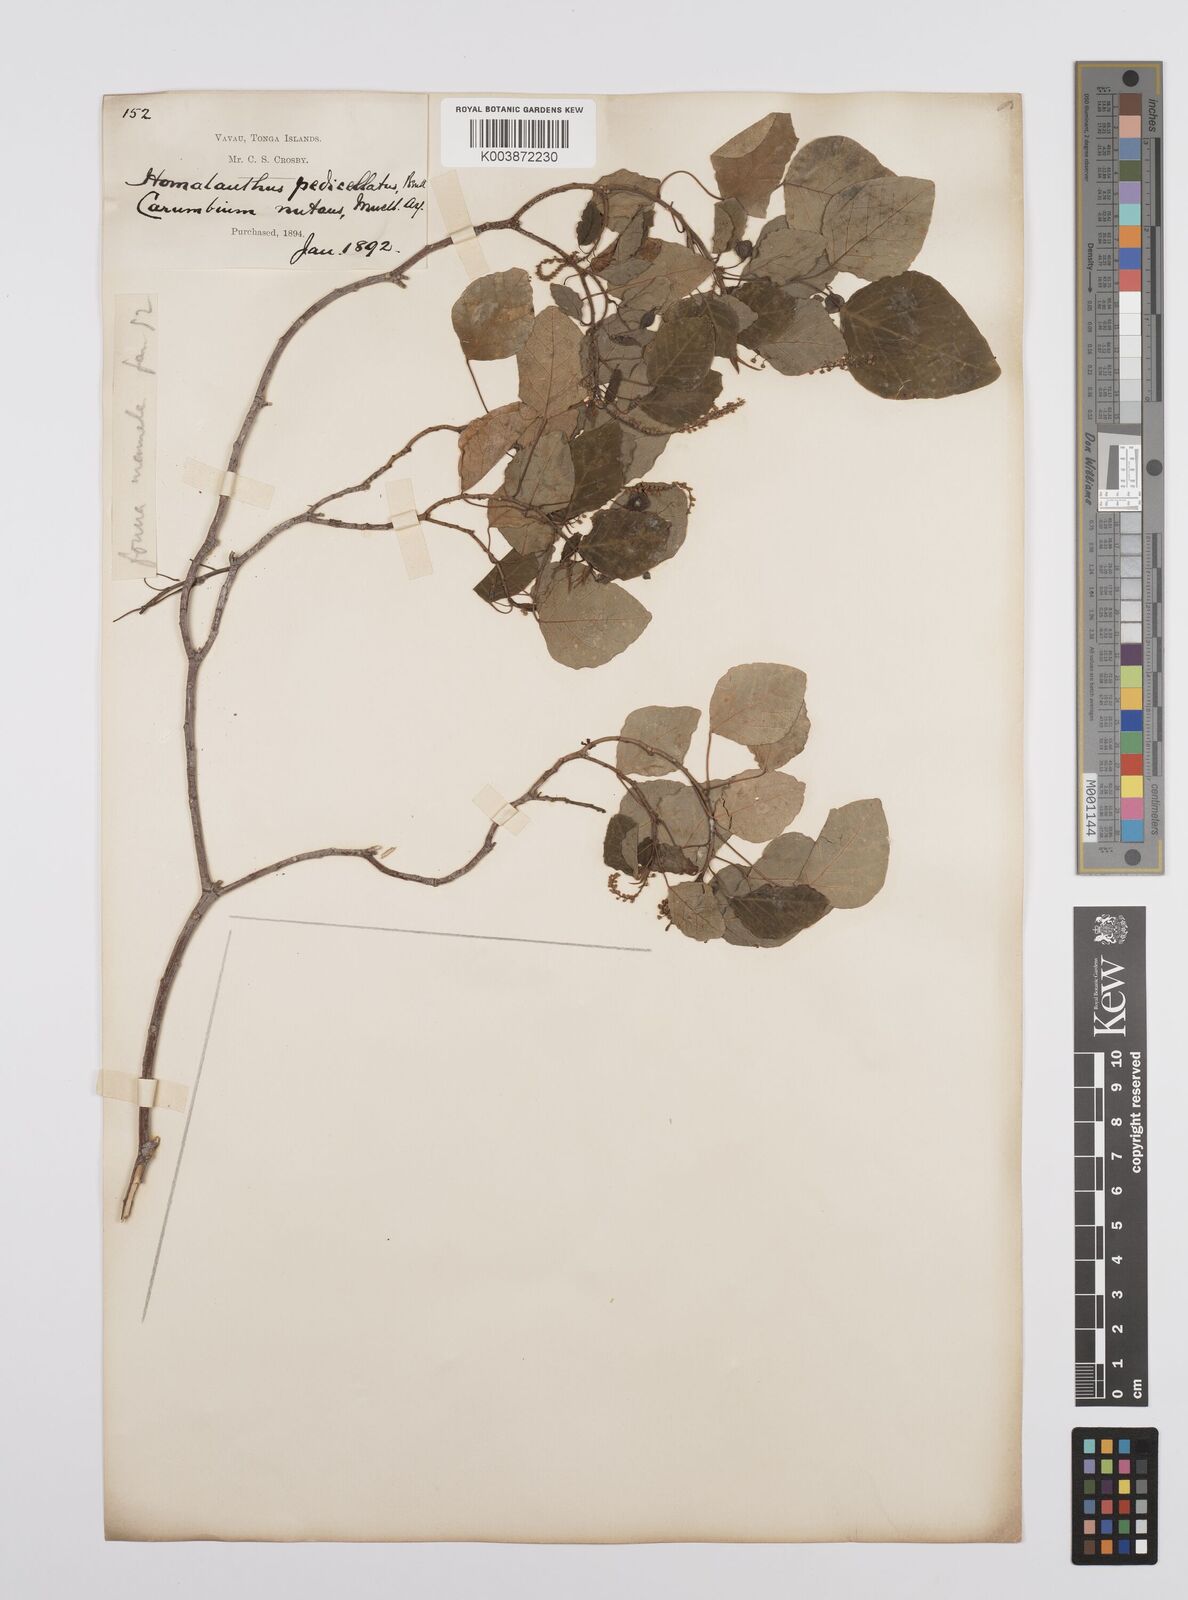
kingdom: Plantae
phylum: Tracheophyta
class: Magnoliopsida
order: Malpighiales
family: Euphorbiaceae
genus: Homalanthus
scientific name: Homalanthus nutans
